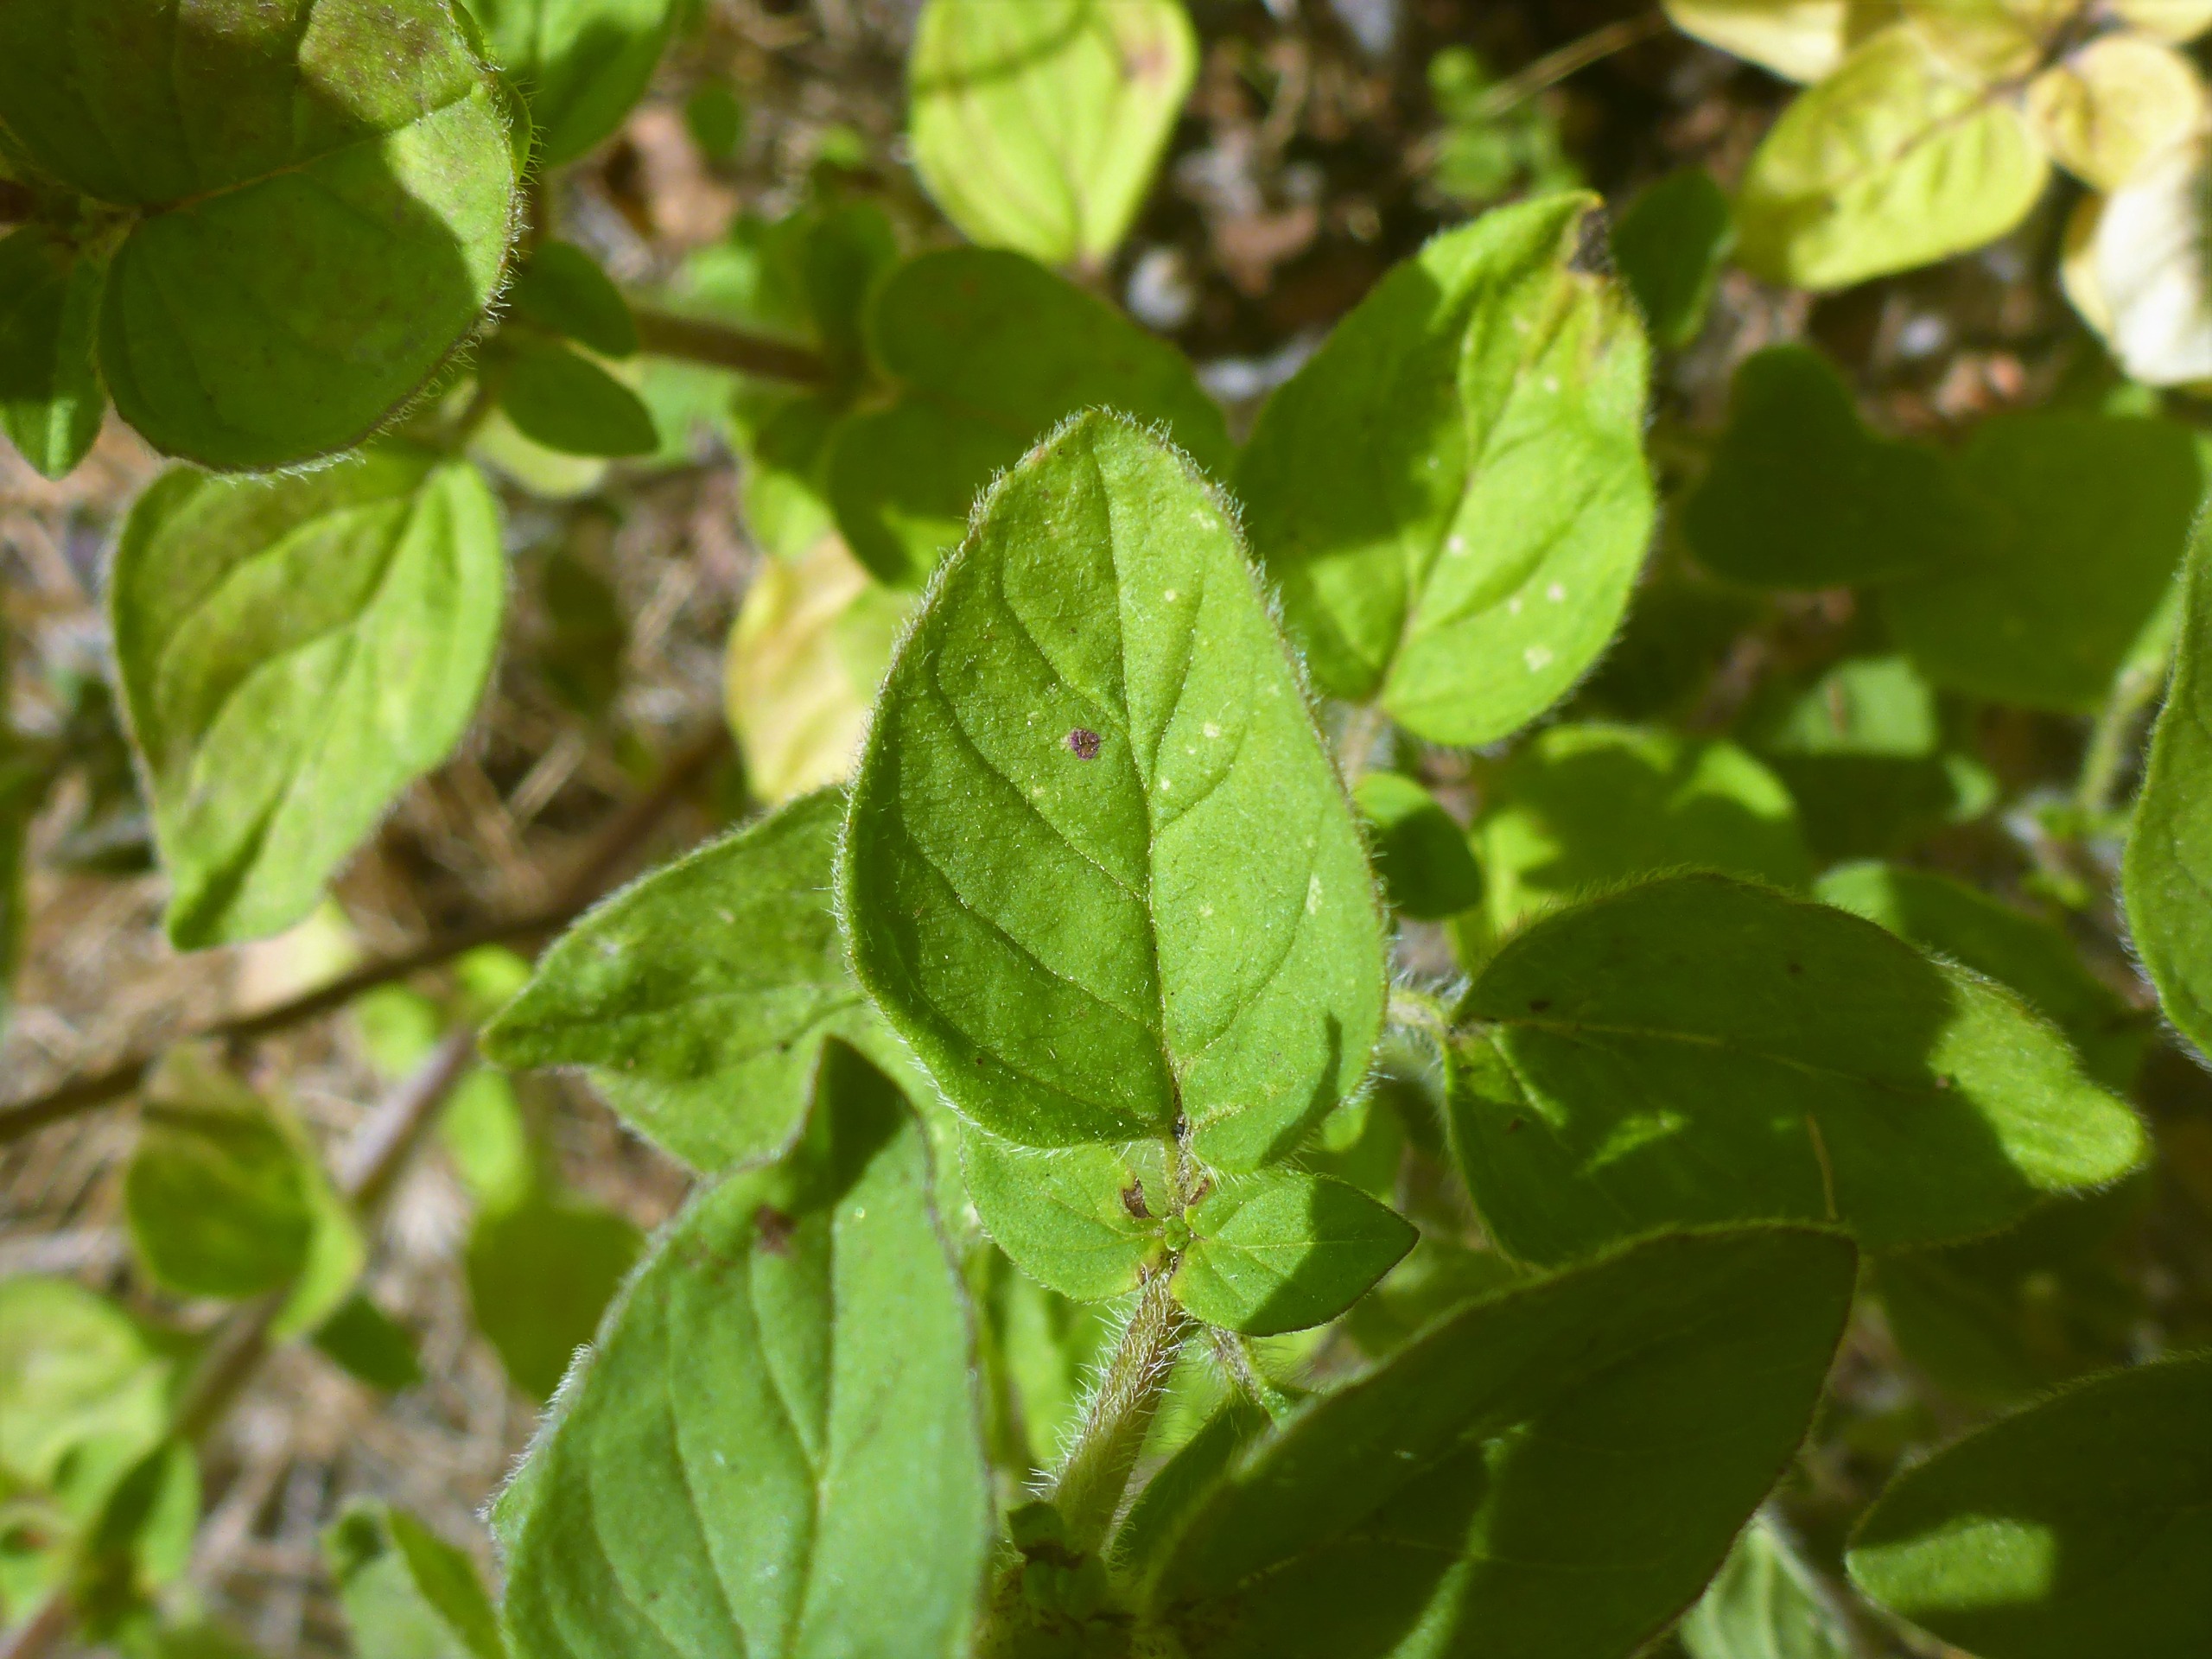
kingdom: Plantae
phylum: Tracheophyta
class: Magnoliopsida
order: Lamiales
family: Lamiaceae
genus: Origanum
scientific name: Origanum vulgare
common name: Merian
